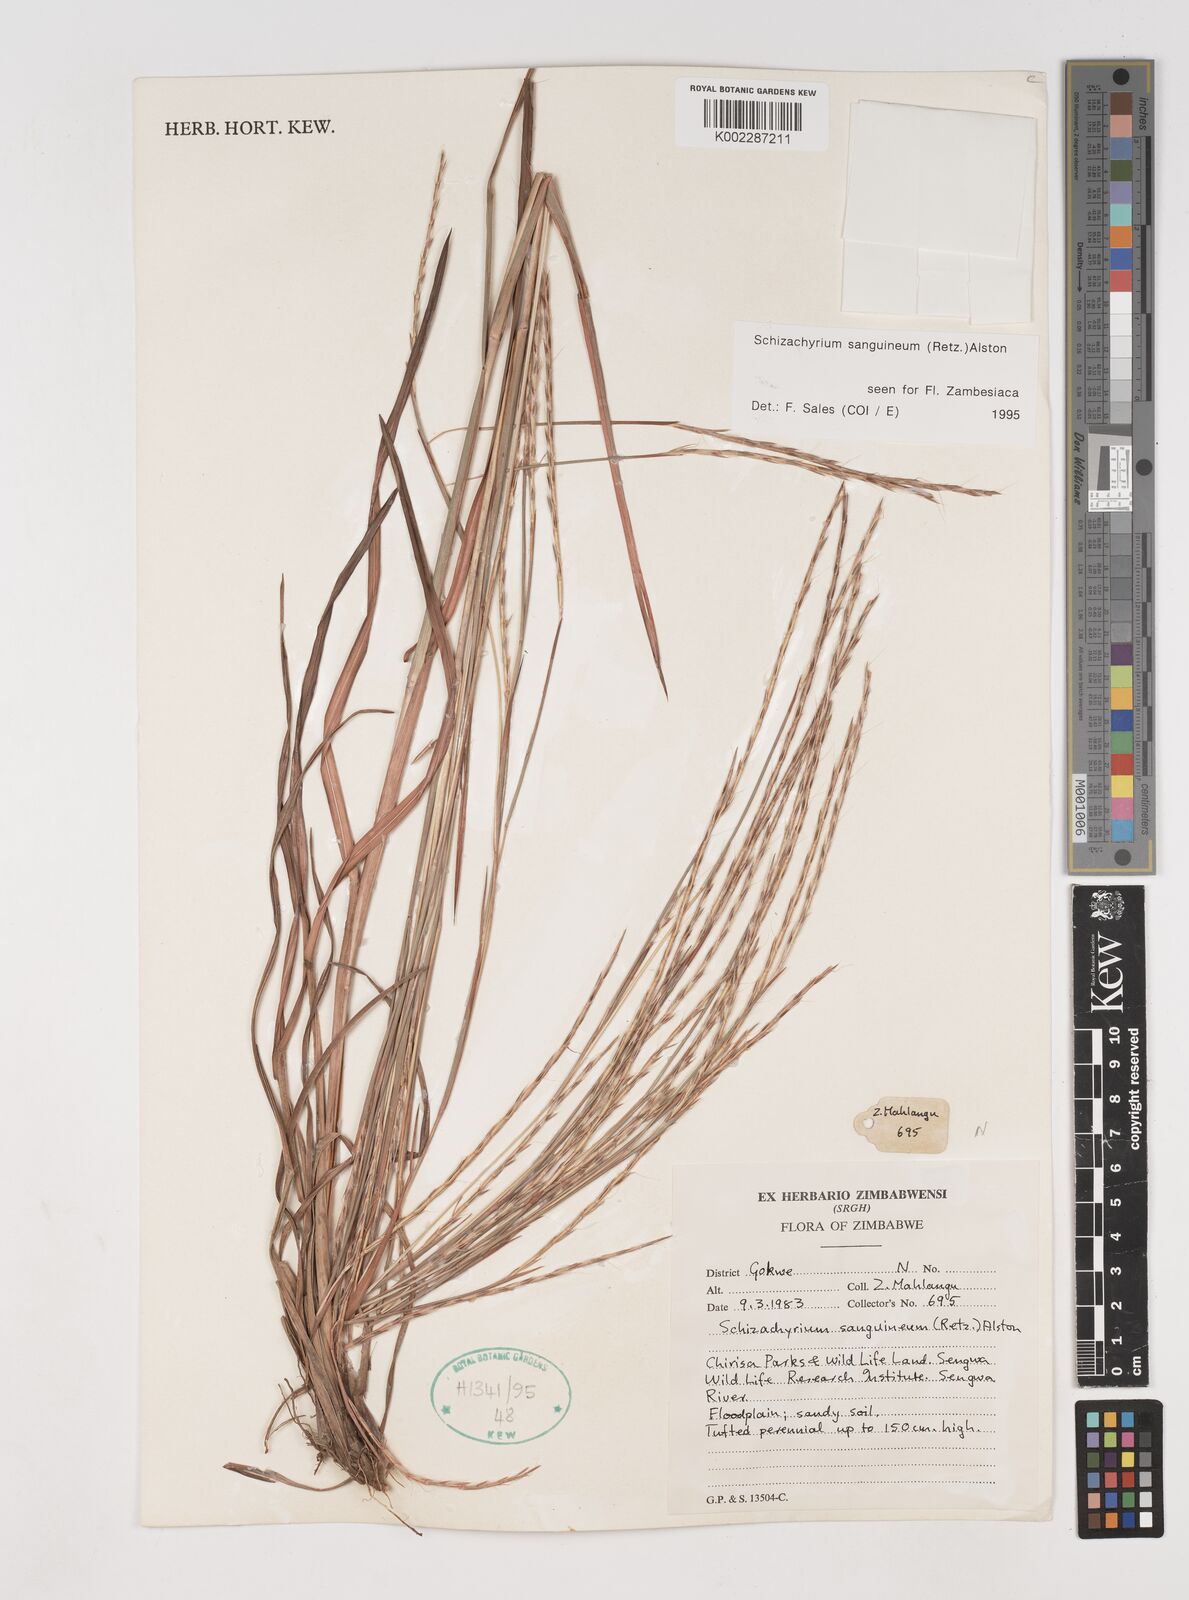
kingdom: Plantae
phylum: Tracheophyta
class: Liliopsida
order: Poales
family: Poaceae
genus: Schizachyrium
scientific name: Schizachyrium sanguineum
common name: Crimson bluestem
